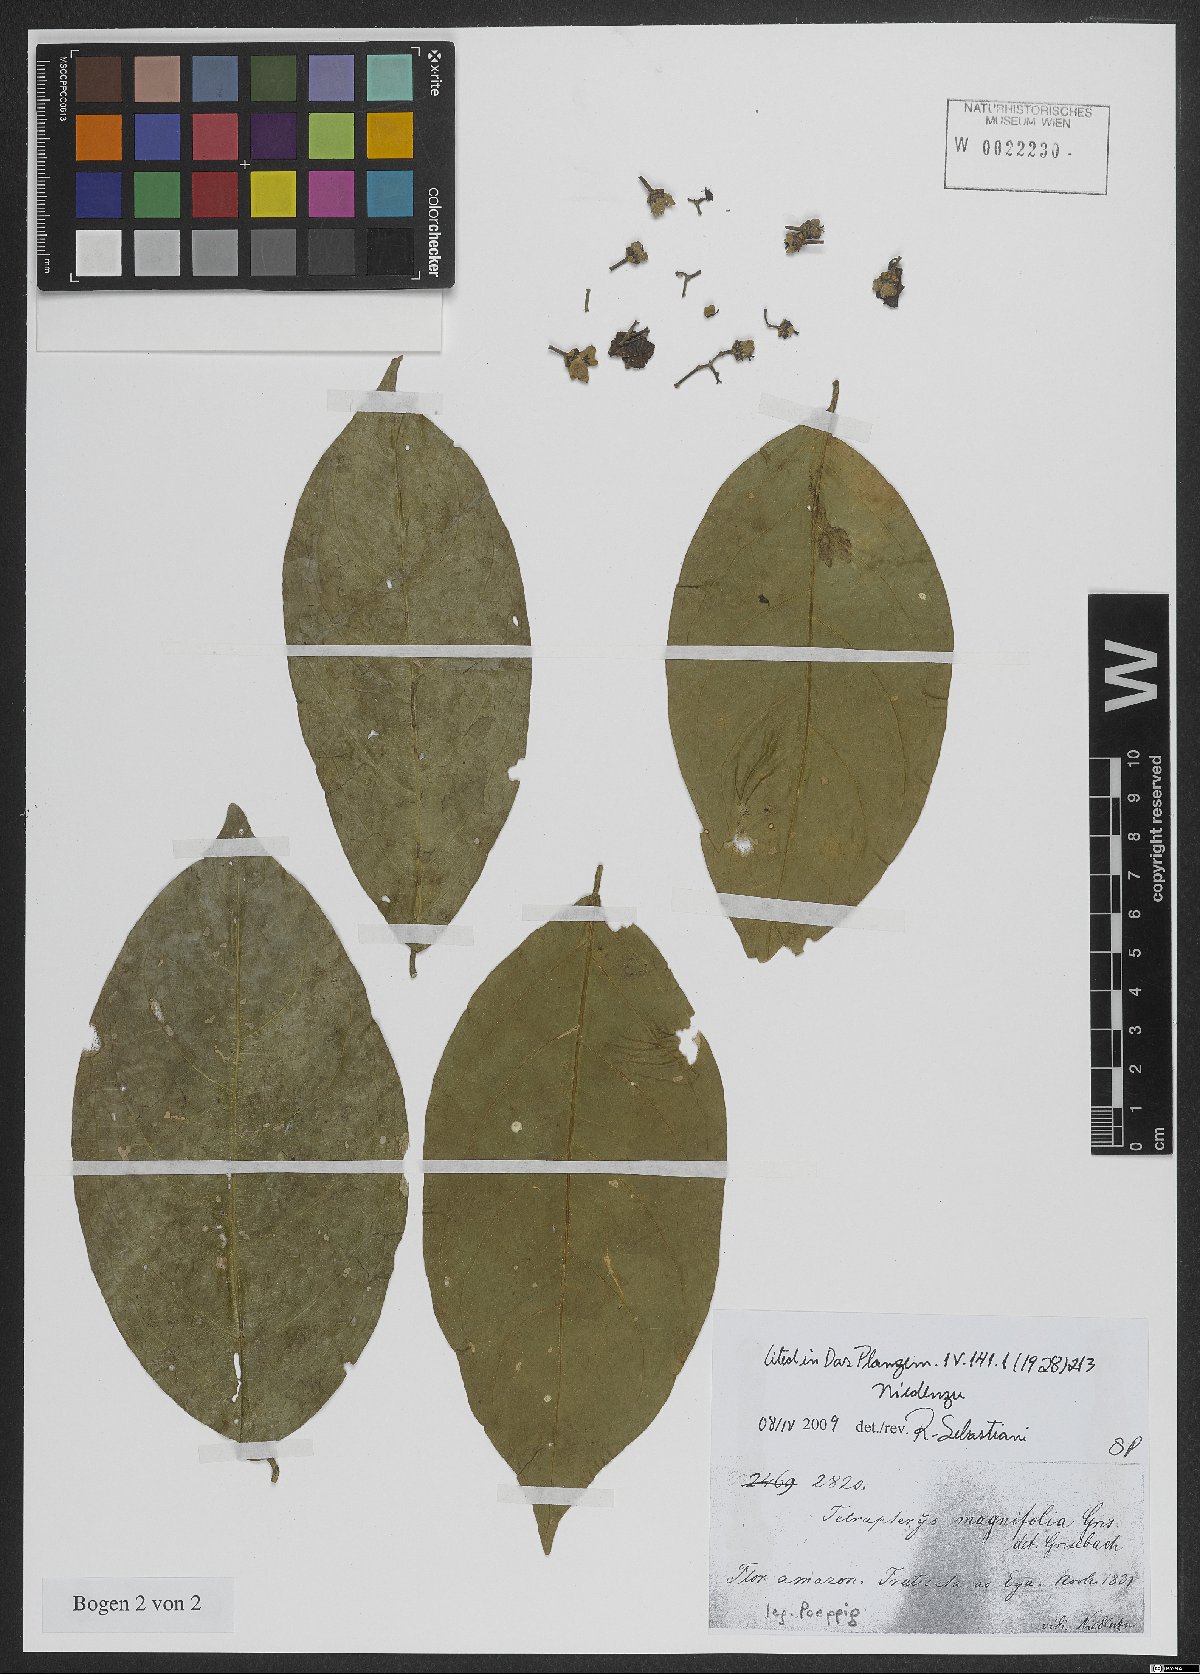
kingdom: Plantae
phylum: Tracheophyta
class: Magnoliopsida
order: Malpighiales
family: Malpighiaceae
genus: Tetrapterys
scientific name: Tetrapterys magnifolia
